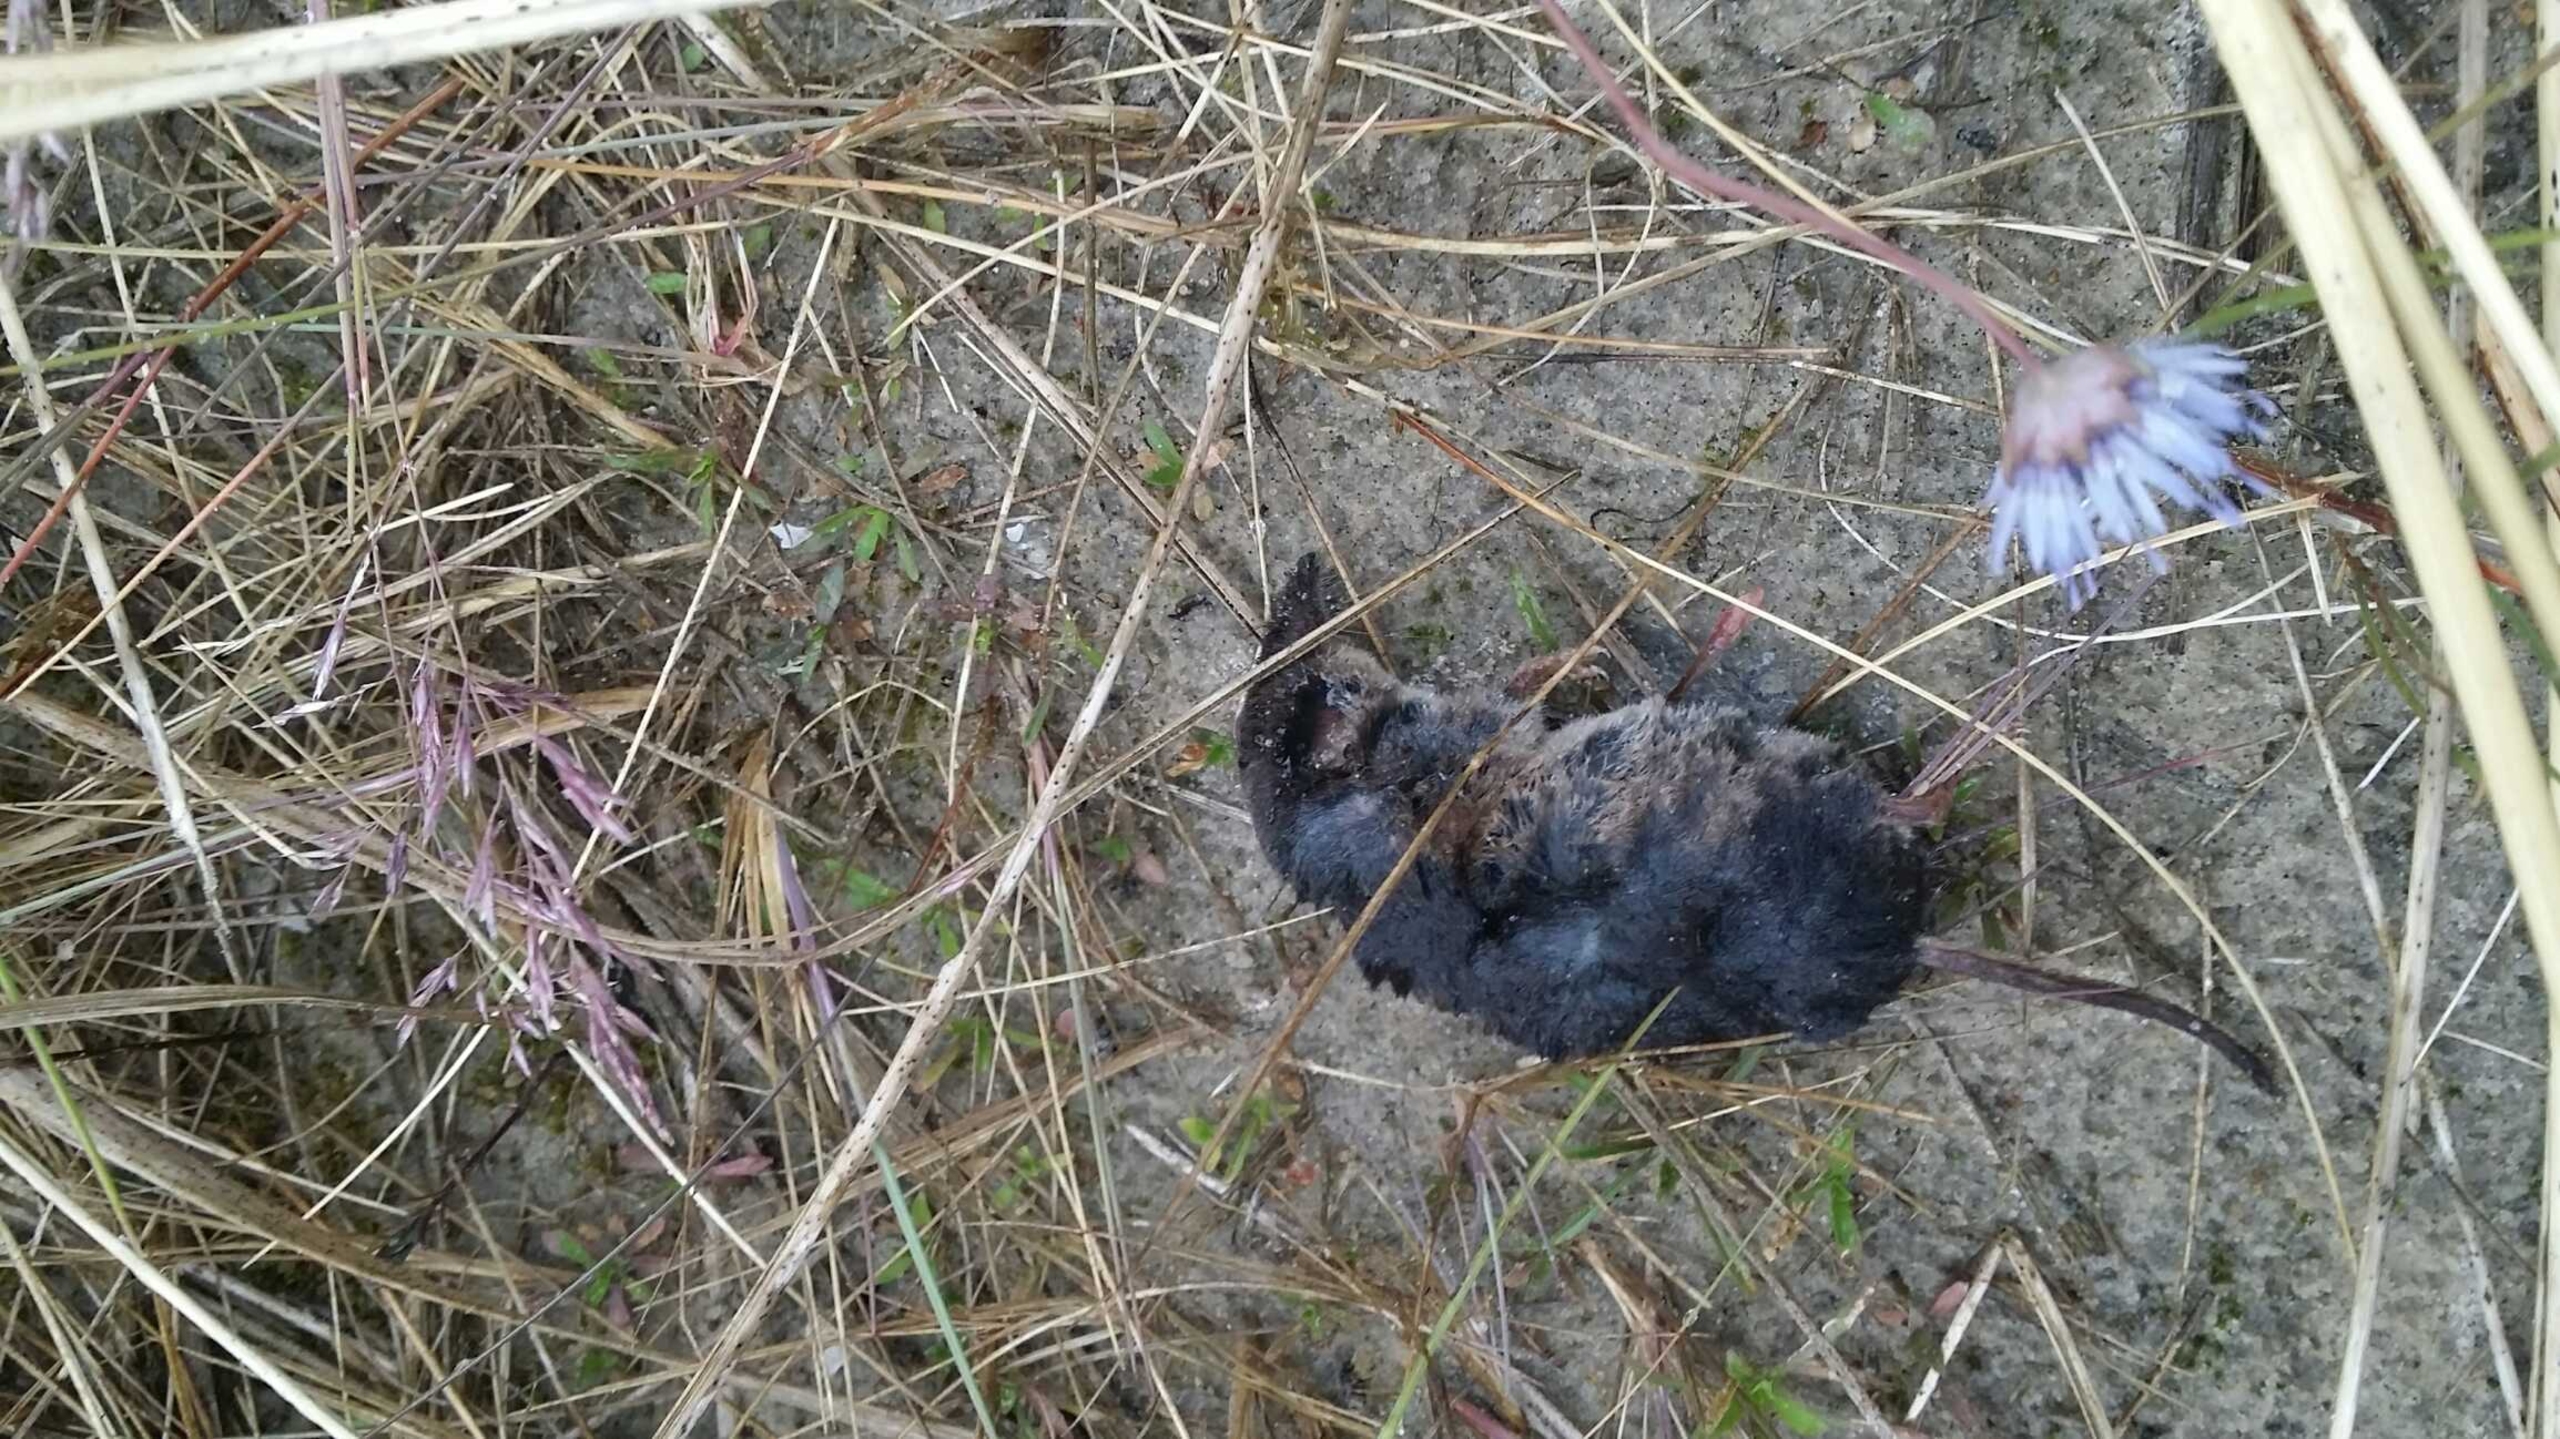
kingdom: Animalia
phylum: Chordata
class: Mammalia
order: Soricomorpha
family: Soricidae
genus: Sorex
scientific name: Sorex araneus
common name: Almindelig spidsmus
